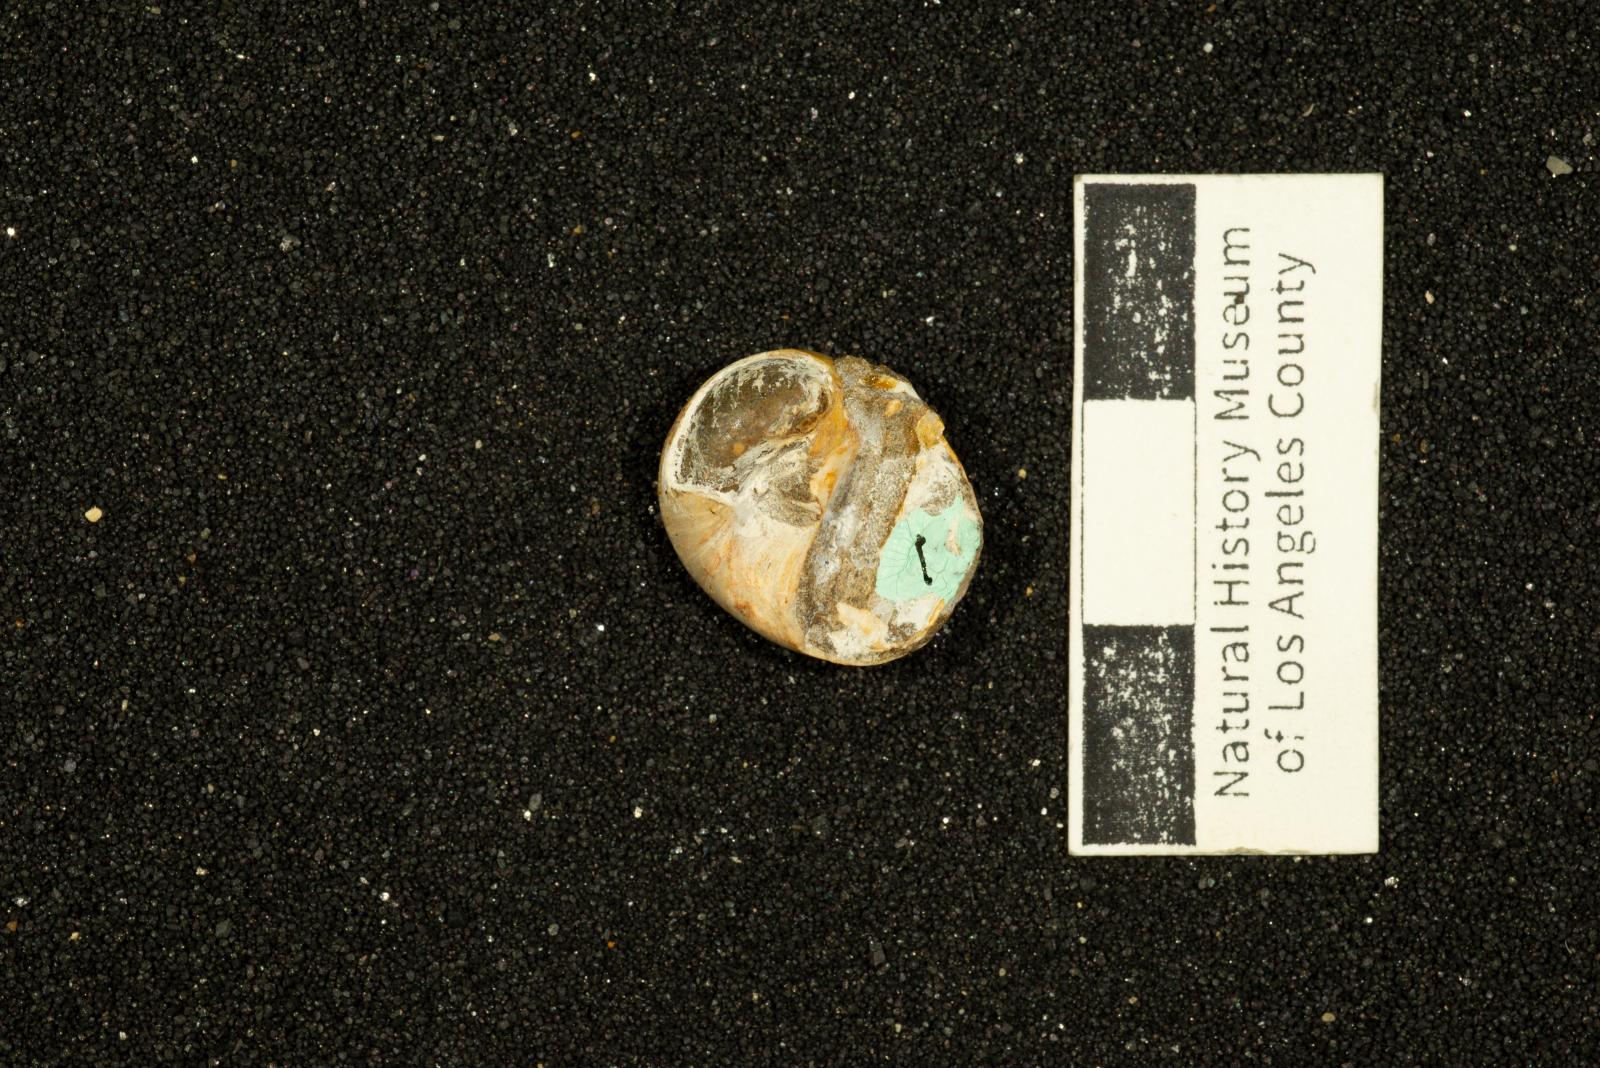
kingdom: Animalia
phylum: Mollusca
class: Gastropoda
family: Gyrodidae
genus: Gyrodes
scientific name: Gyrodes banites
